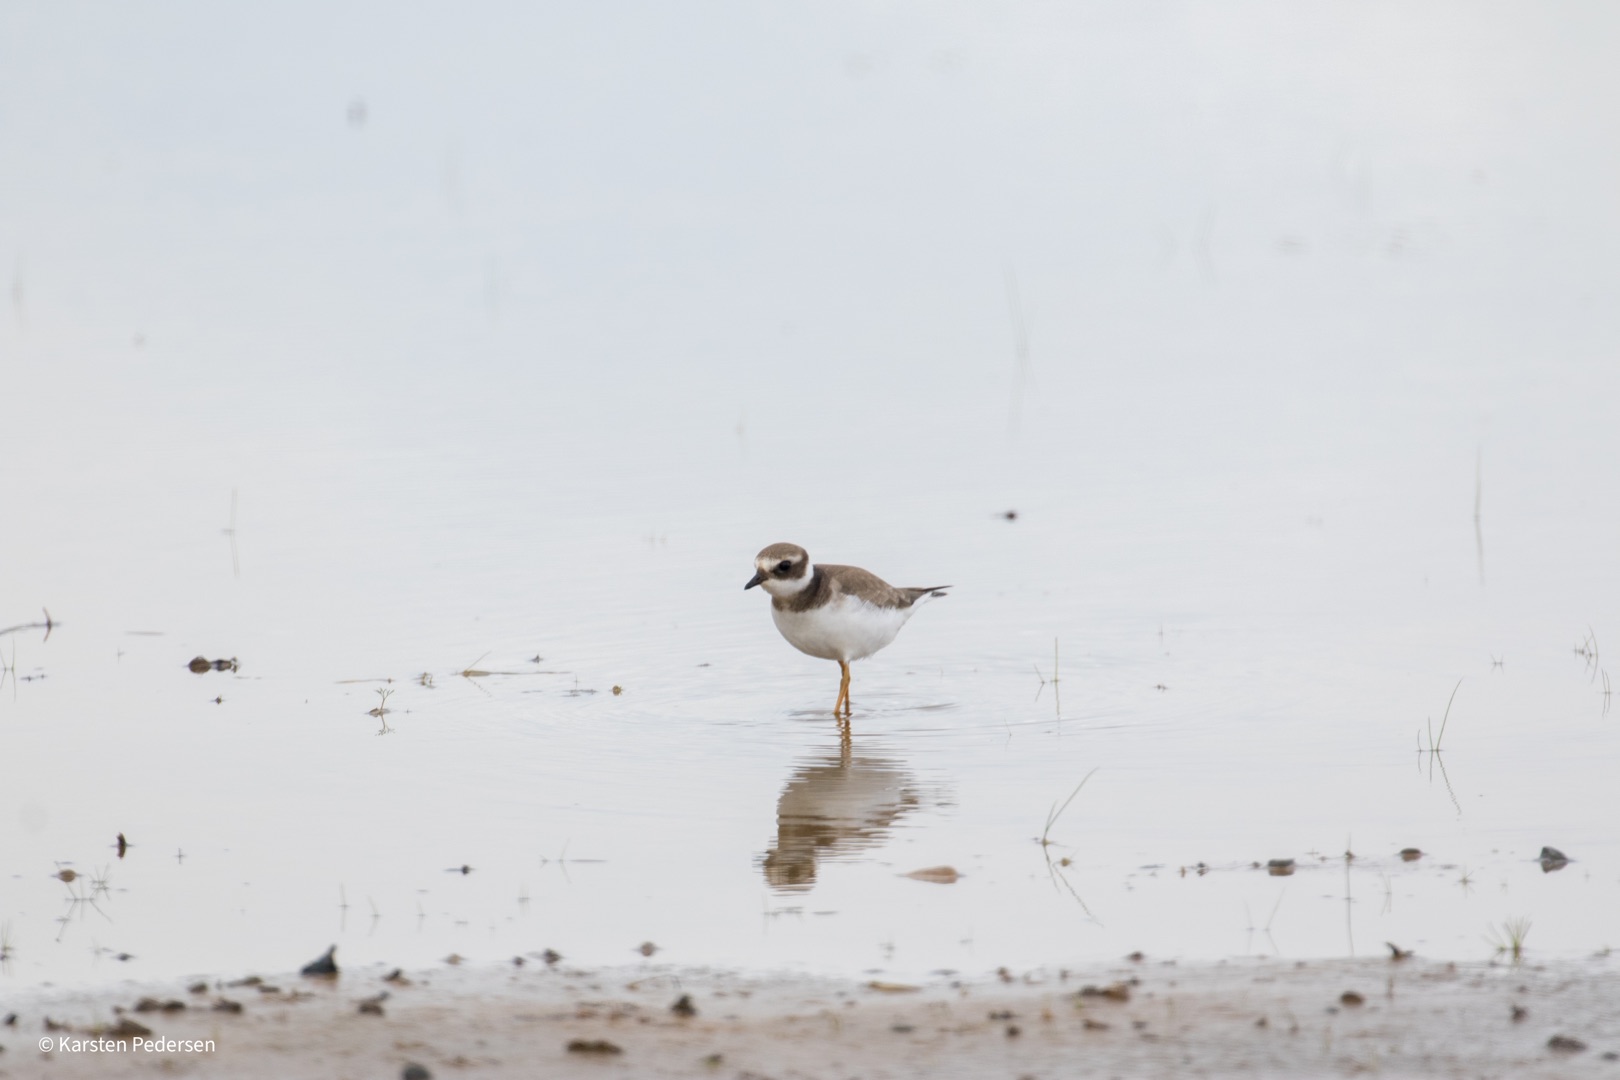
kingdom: Animalia
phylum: Chordata
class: Aves
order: Charadriiformes
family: Charadriidae
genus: Charadrius
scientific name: Charadrius hiaticula
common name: Stor præstekrave
